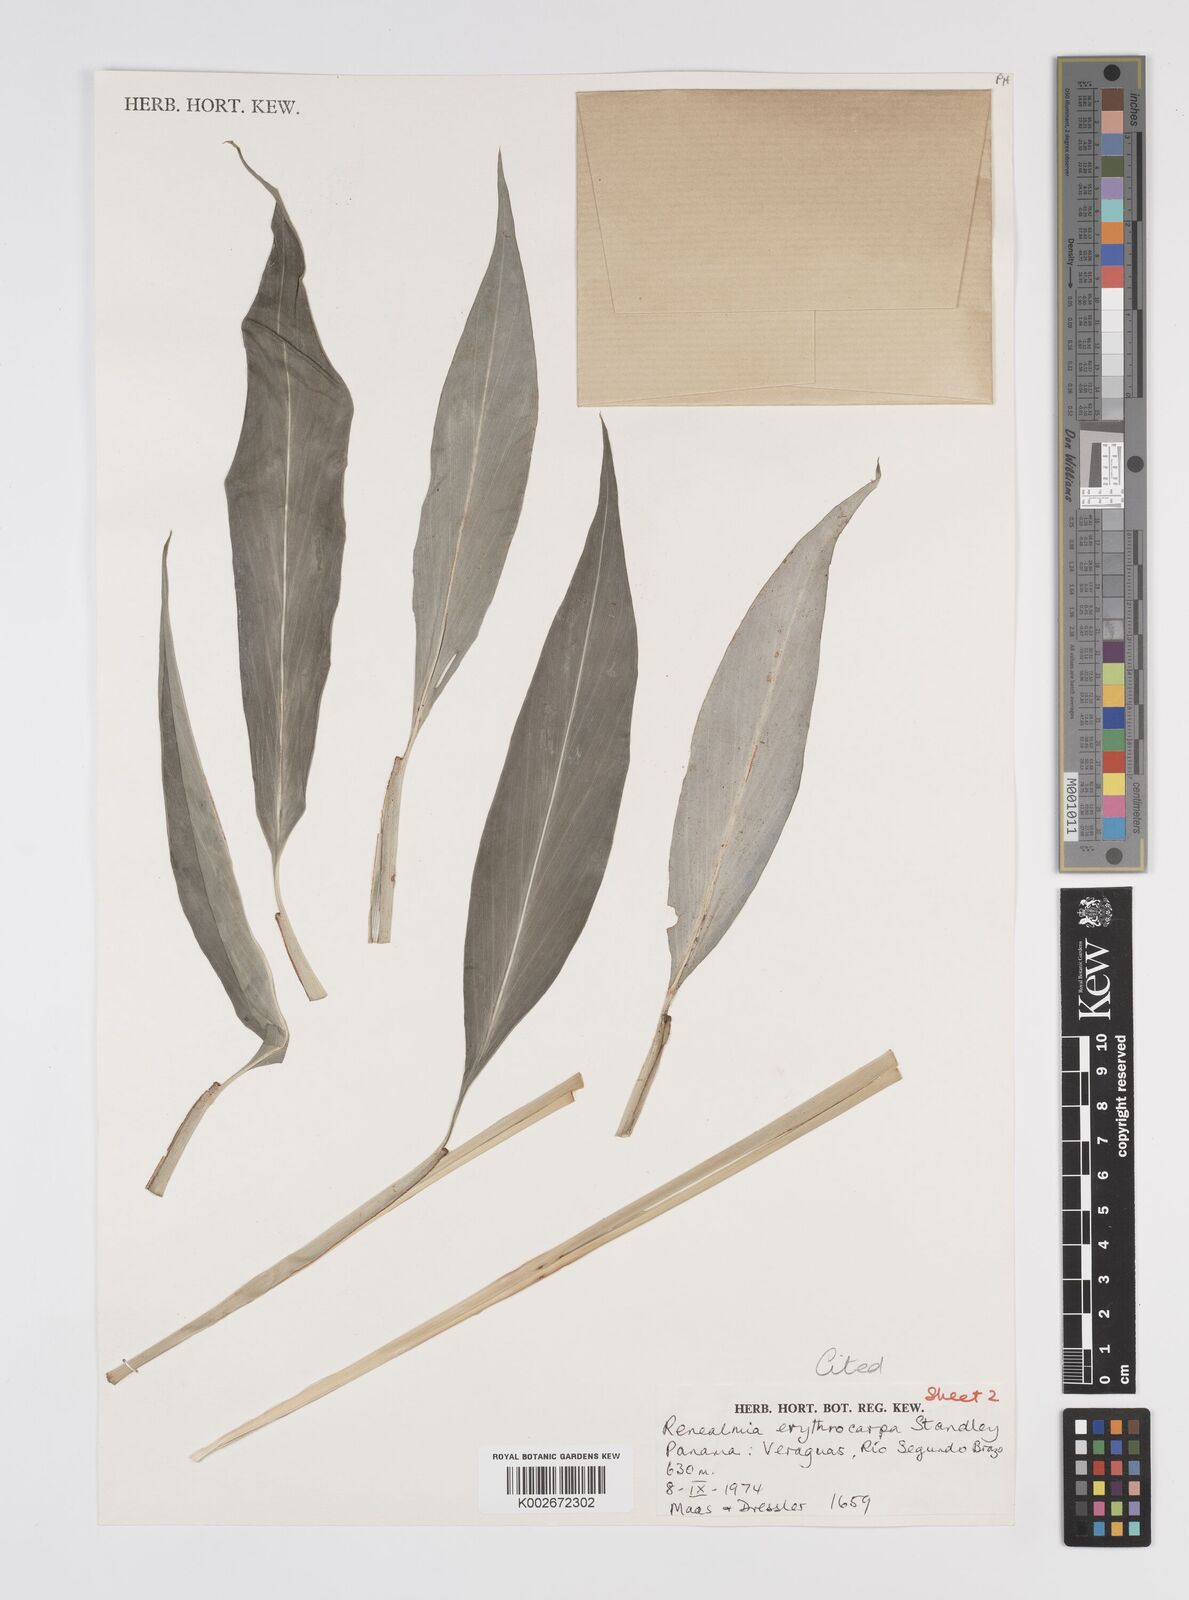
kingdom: Plantae
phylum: Tracheophyta
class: Liliopsida
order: Zingiberales
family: Zingiberaceae
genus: Renealmia
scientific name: Renealmia erythrocarpa
